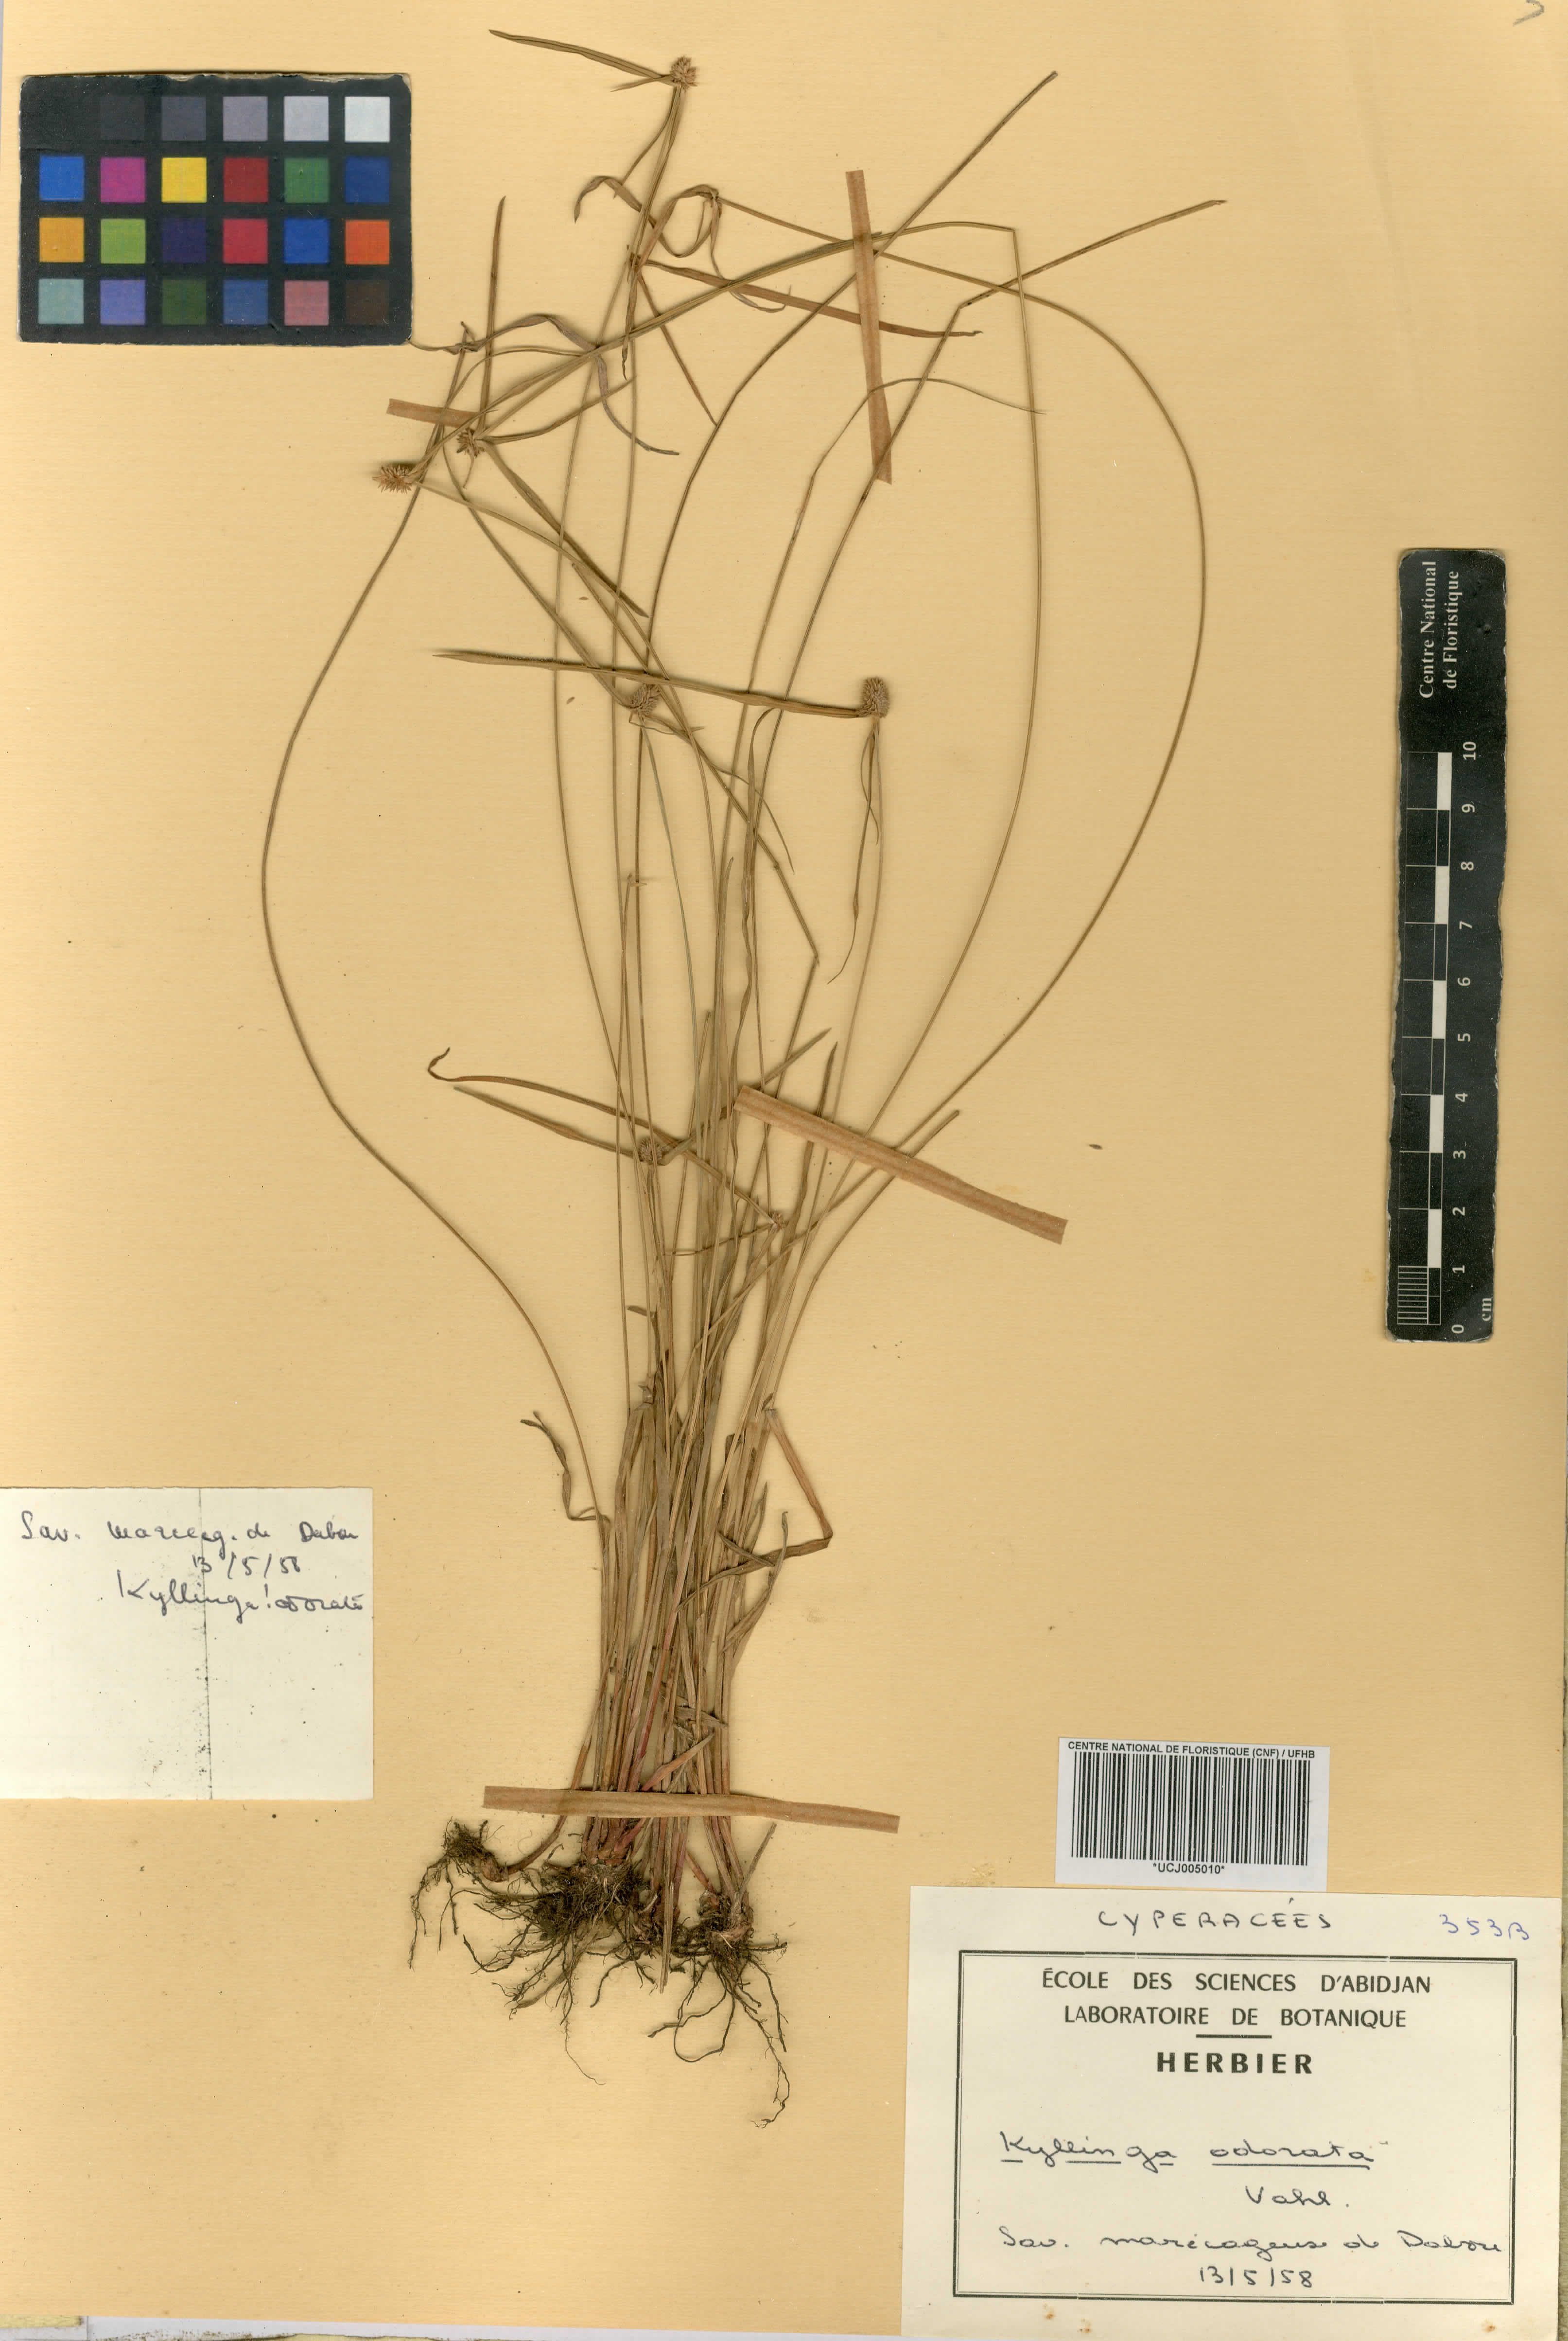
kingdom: Plantae
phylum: Tracheophyta
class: Liliopsida
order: Poales
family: Cyperaceae
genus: Cyperus
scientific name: Cyperus sesquiflorus
